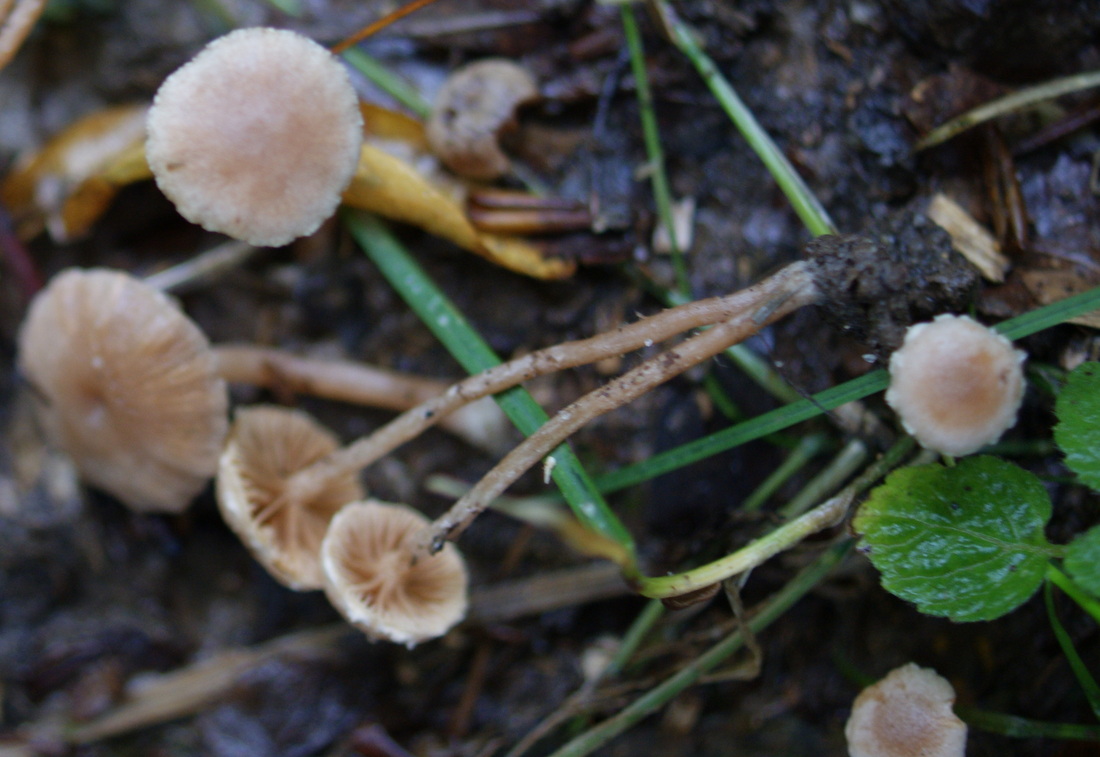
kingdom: Fungi
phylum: Basidiomycota
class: Agaricomycetes
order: Agaricales
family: Tubariaceae
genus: Tubaria
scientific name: Tubaria conspersa
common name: bleg fnughat
